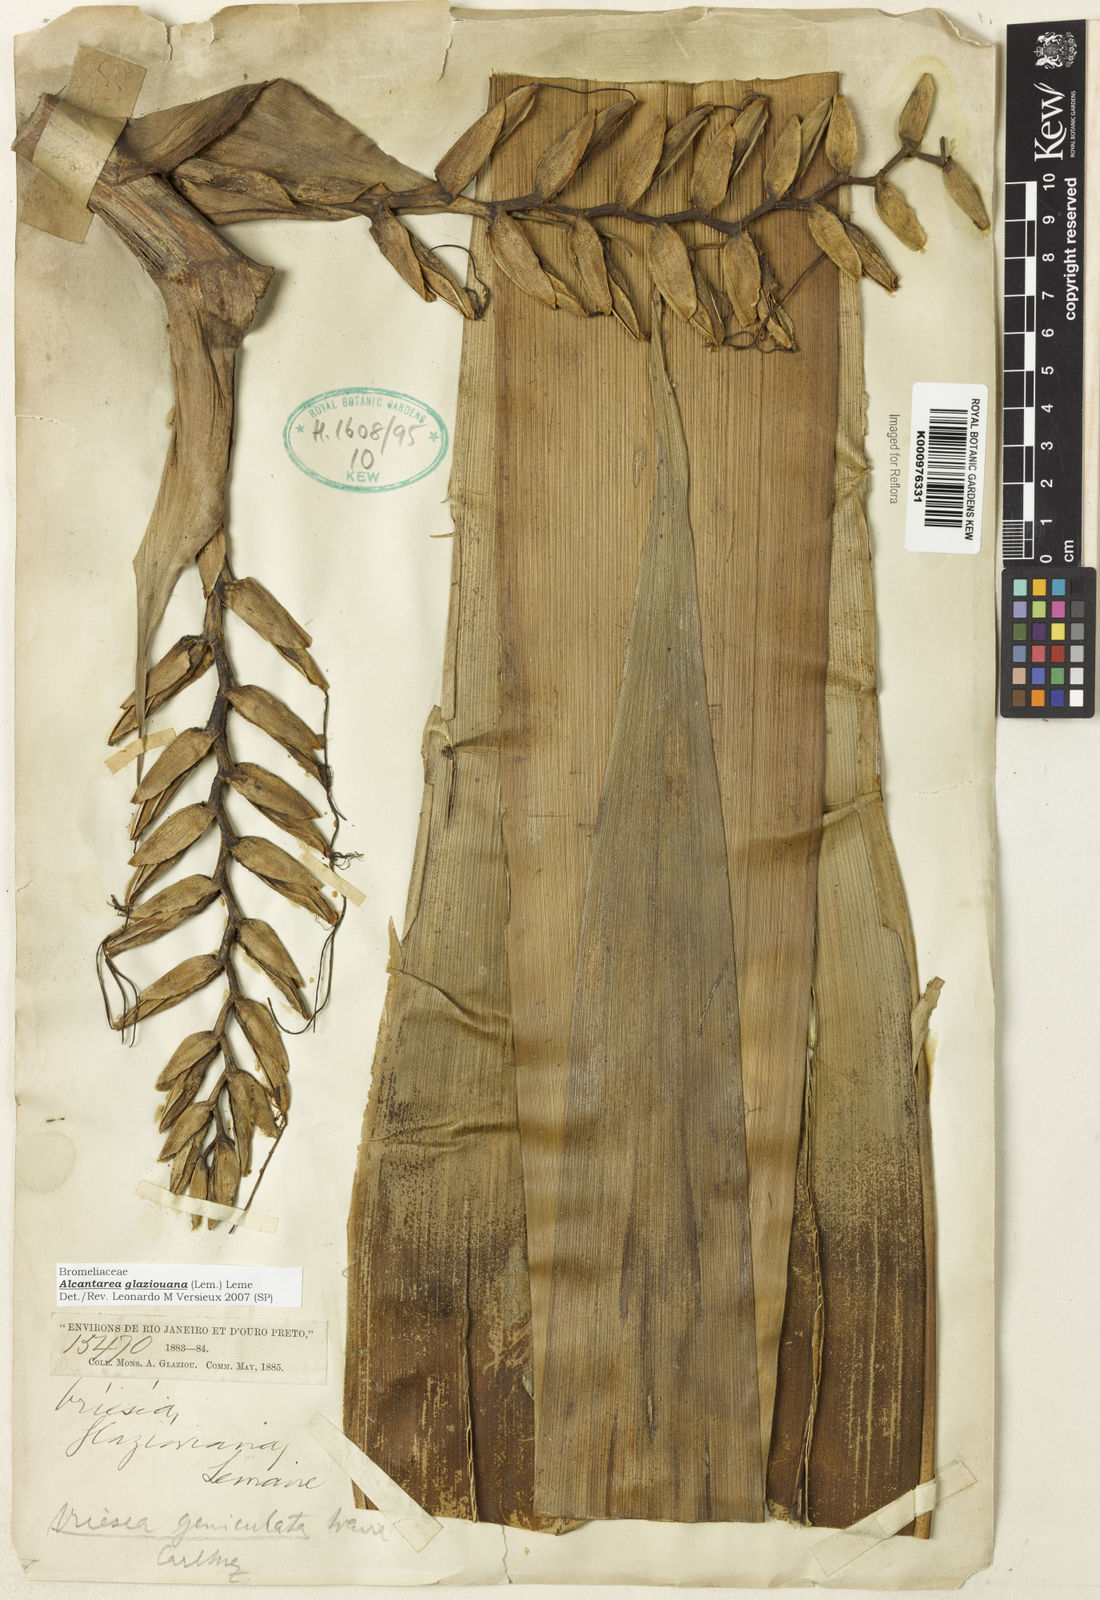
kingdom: Plantae
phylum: Tracheophyta
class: Liliopsida
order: Poales
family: Bromeliaceae
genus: Alcantarea
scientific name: Alcantarea geniculata
